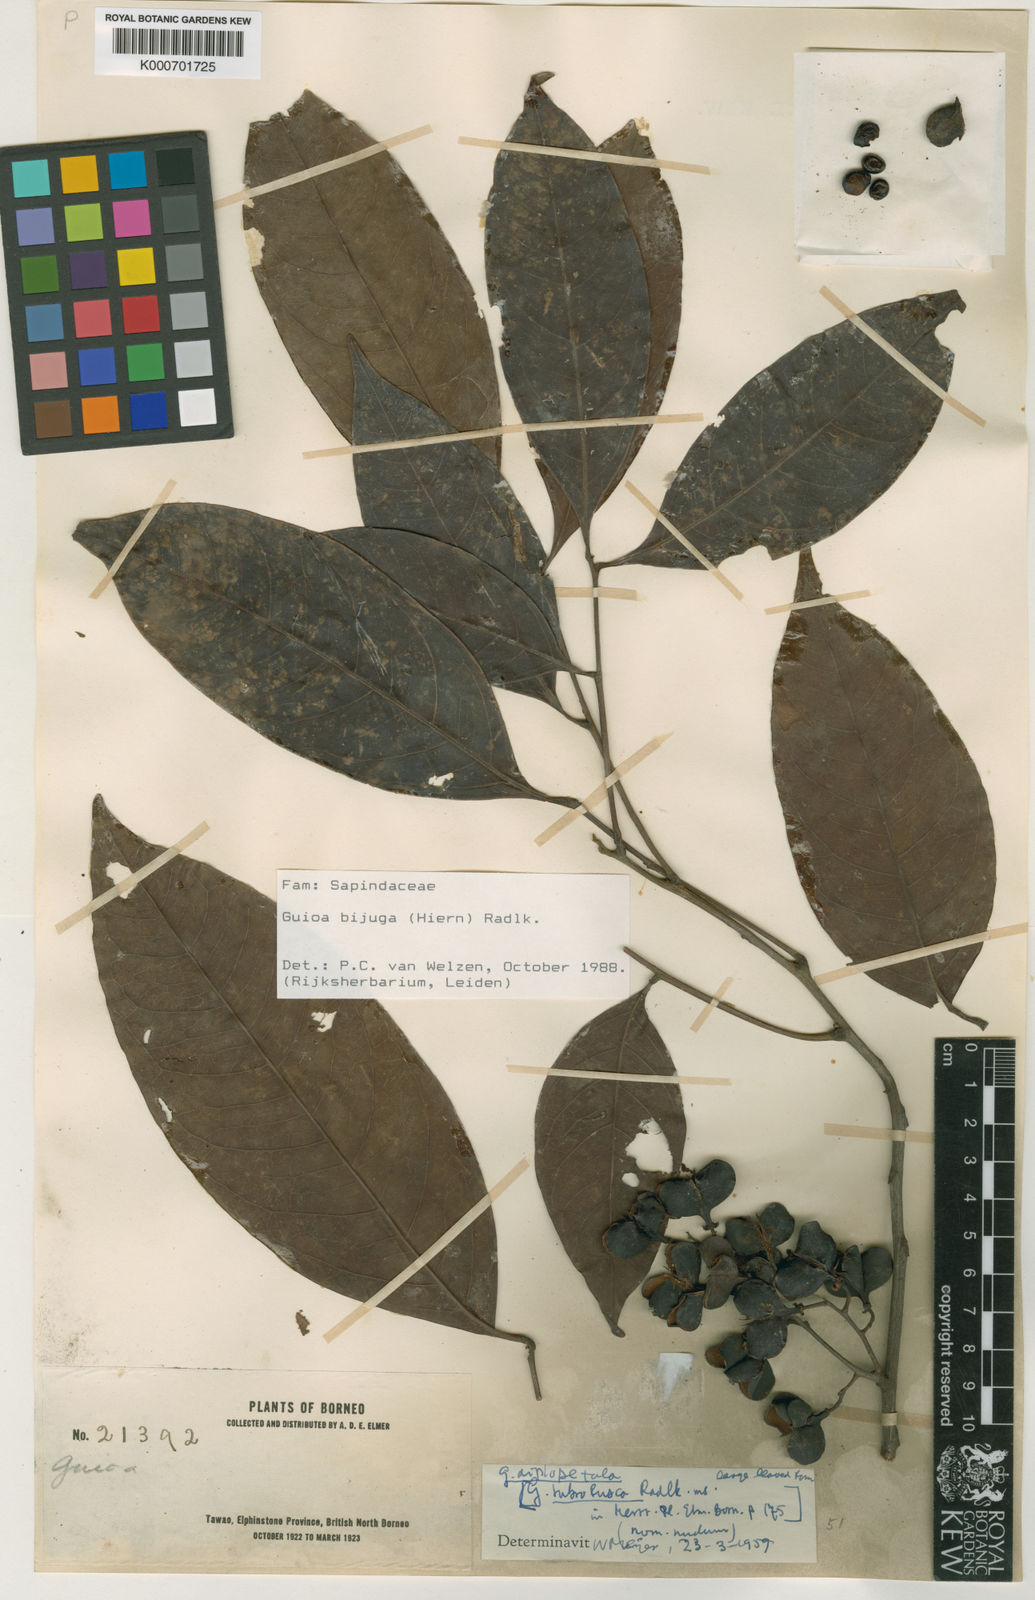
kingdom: Plantae
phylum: Tracheophyta
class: Magnoliopsida
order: Sapindales
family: Sapindaceae
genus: Guioa
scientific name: Guioa bijuga
